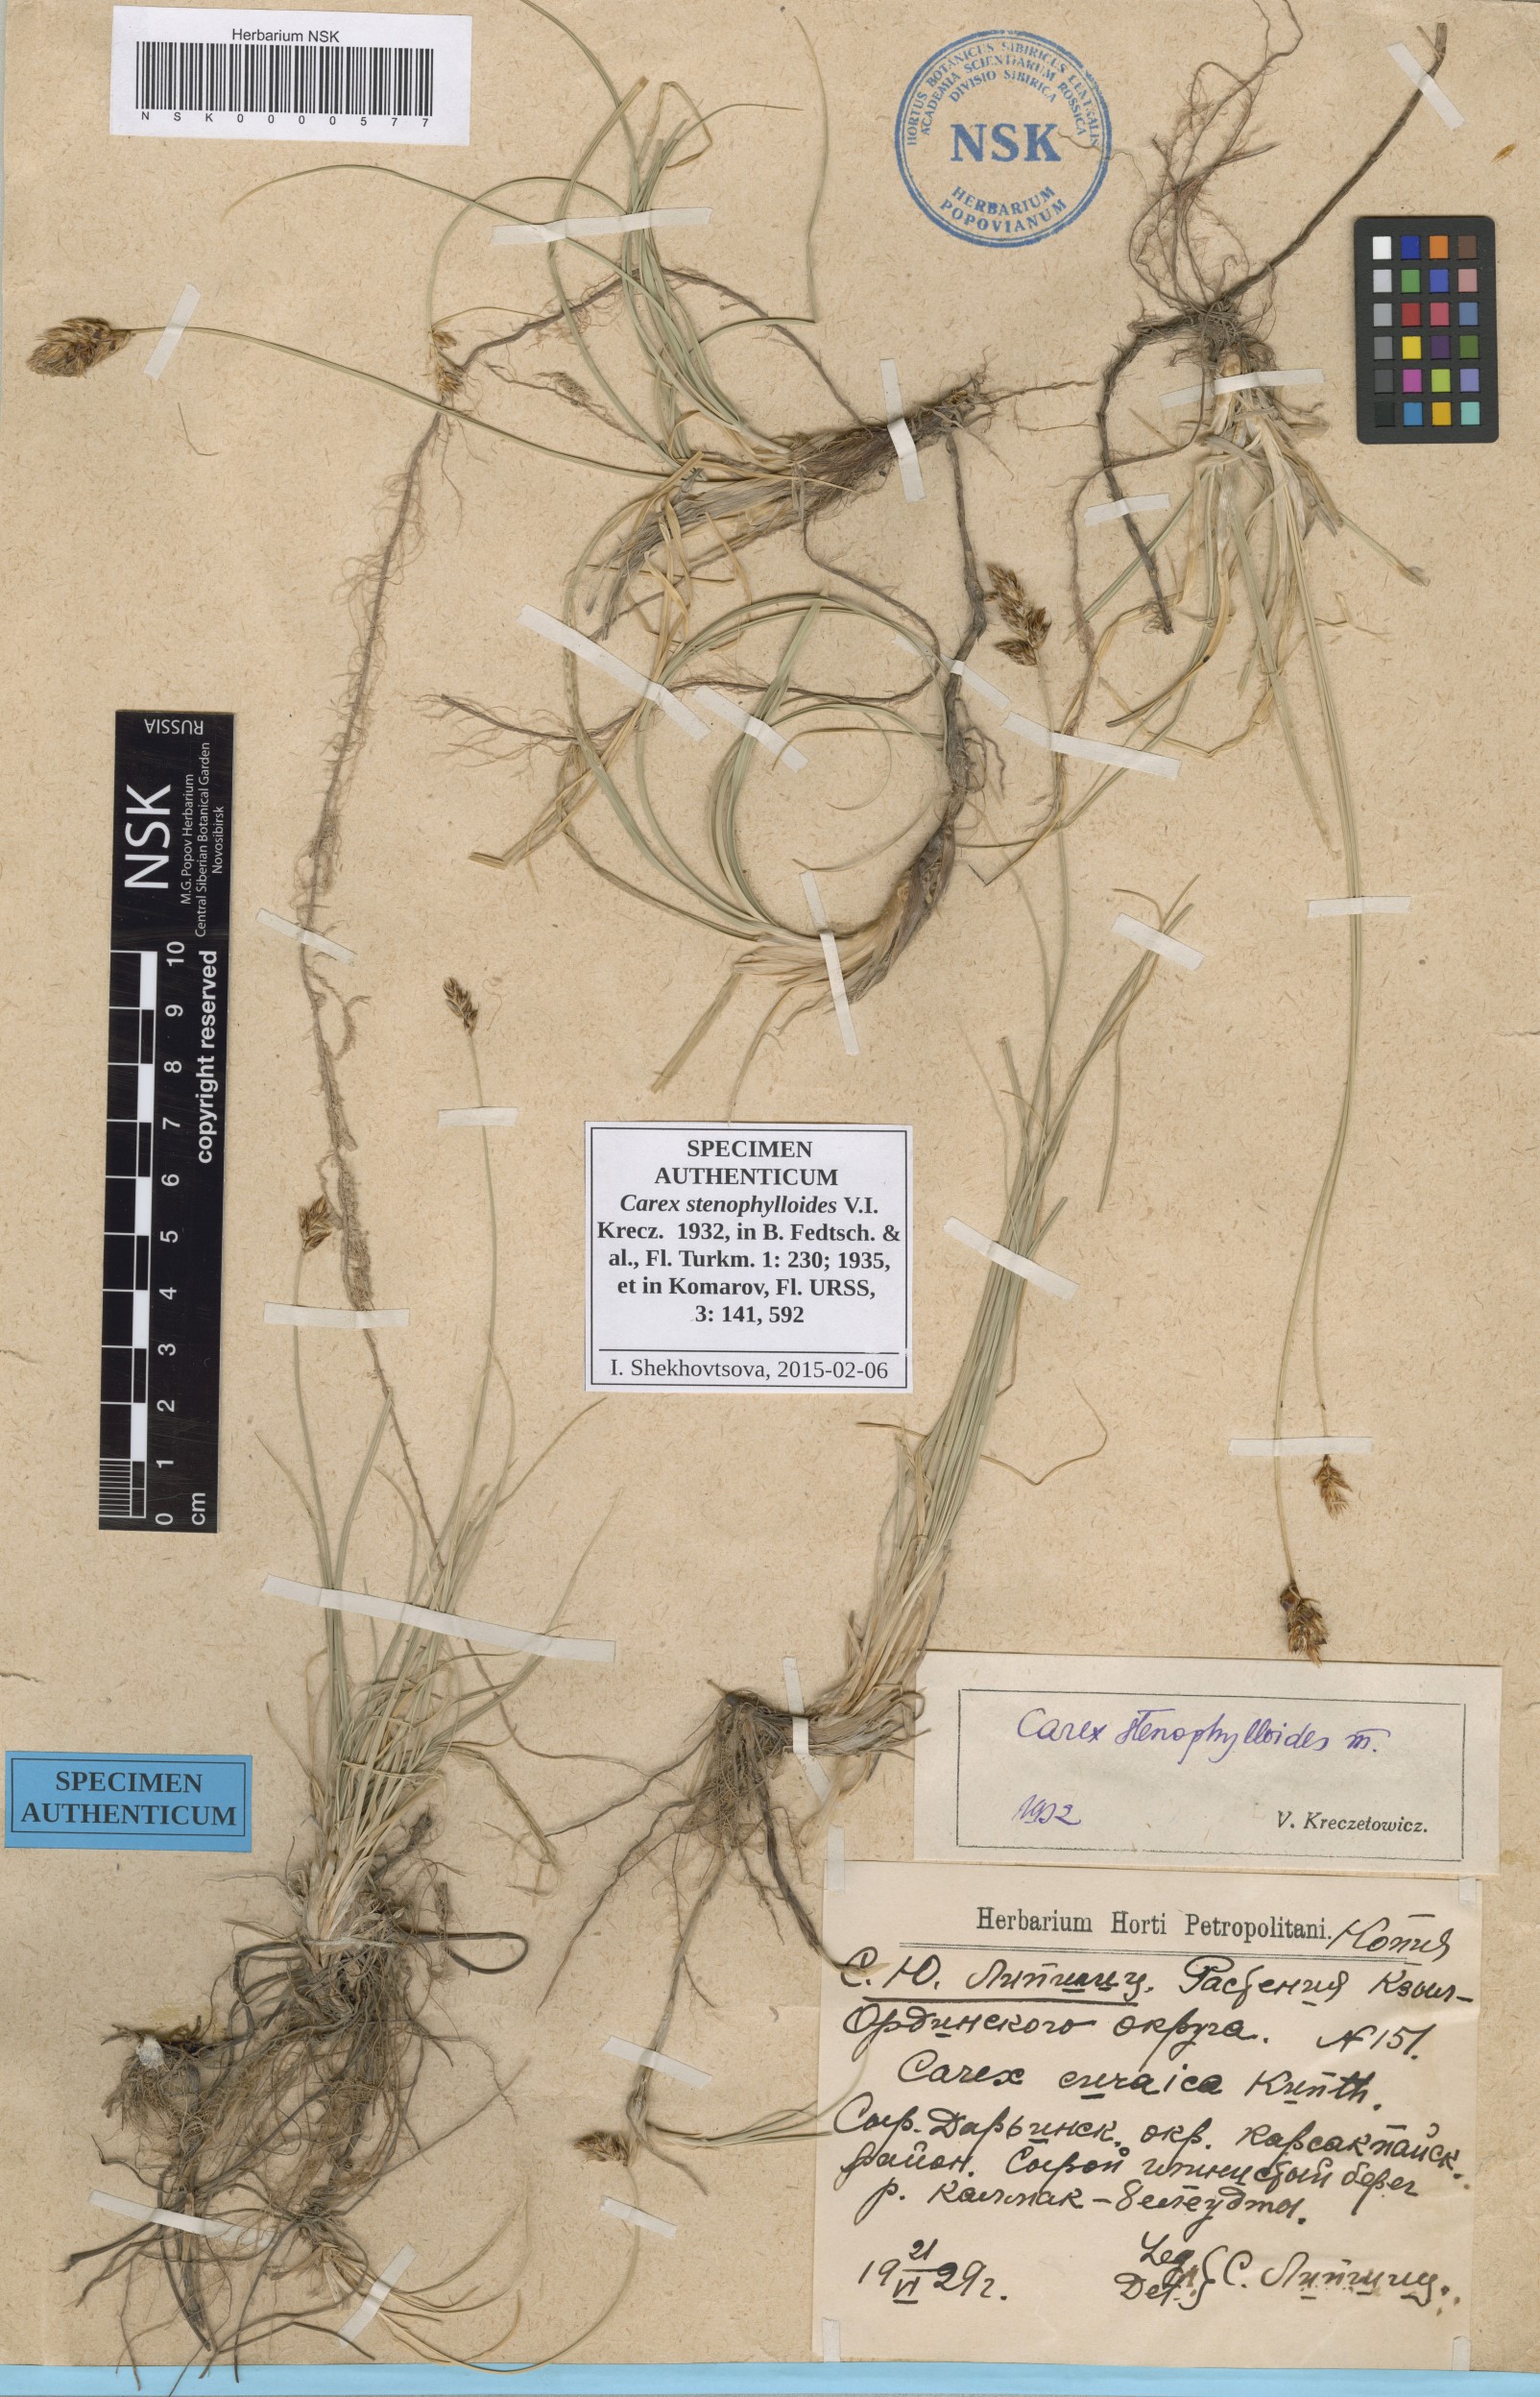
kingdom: Plantae
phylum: Tracheophyta
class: Liliopsida
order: Poales
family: Cyperaceae
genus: Carex
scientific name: Carex stenophylla
